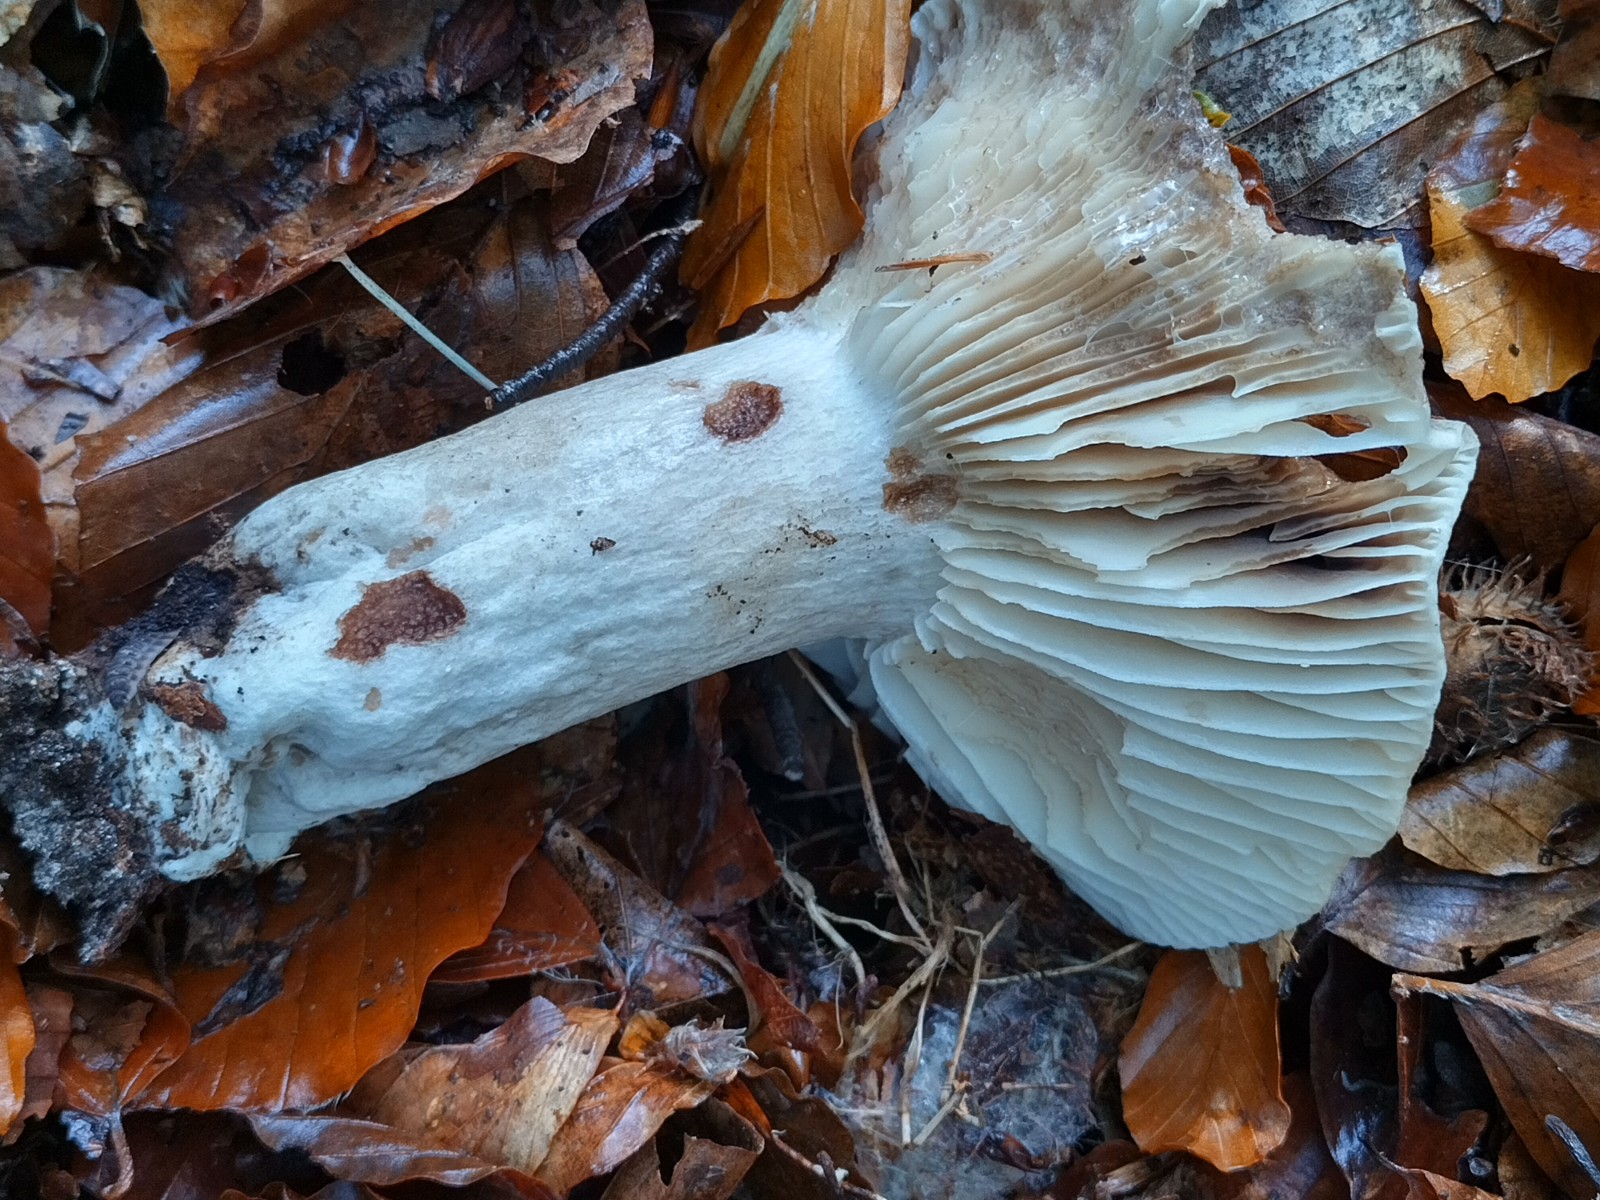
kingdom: Fungi
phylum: Basidiomycota
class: Agaricomycetes
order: Russulales
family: Russulaceae
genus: Russula
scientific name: Russula adusta
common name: sværtende skørhat
